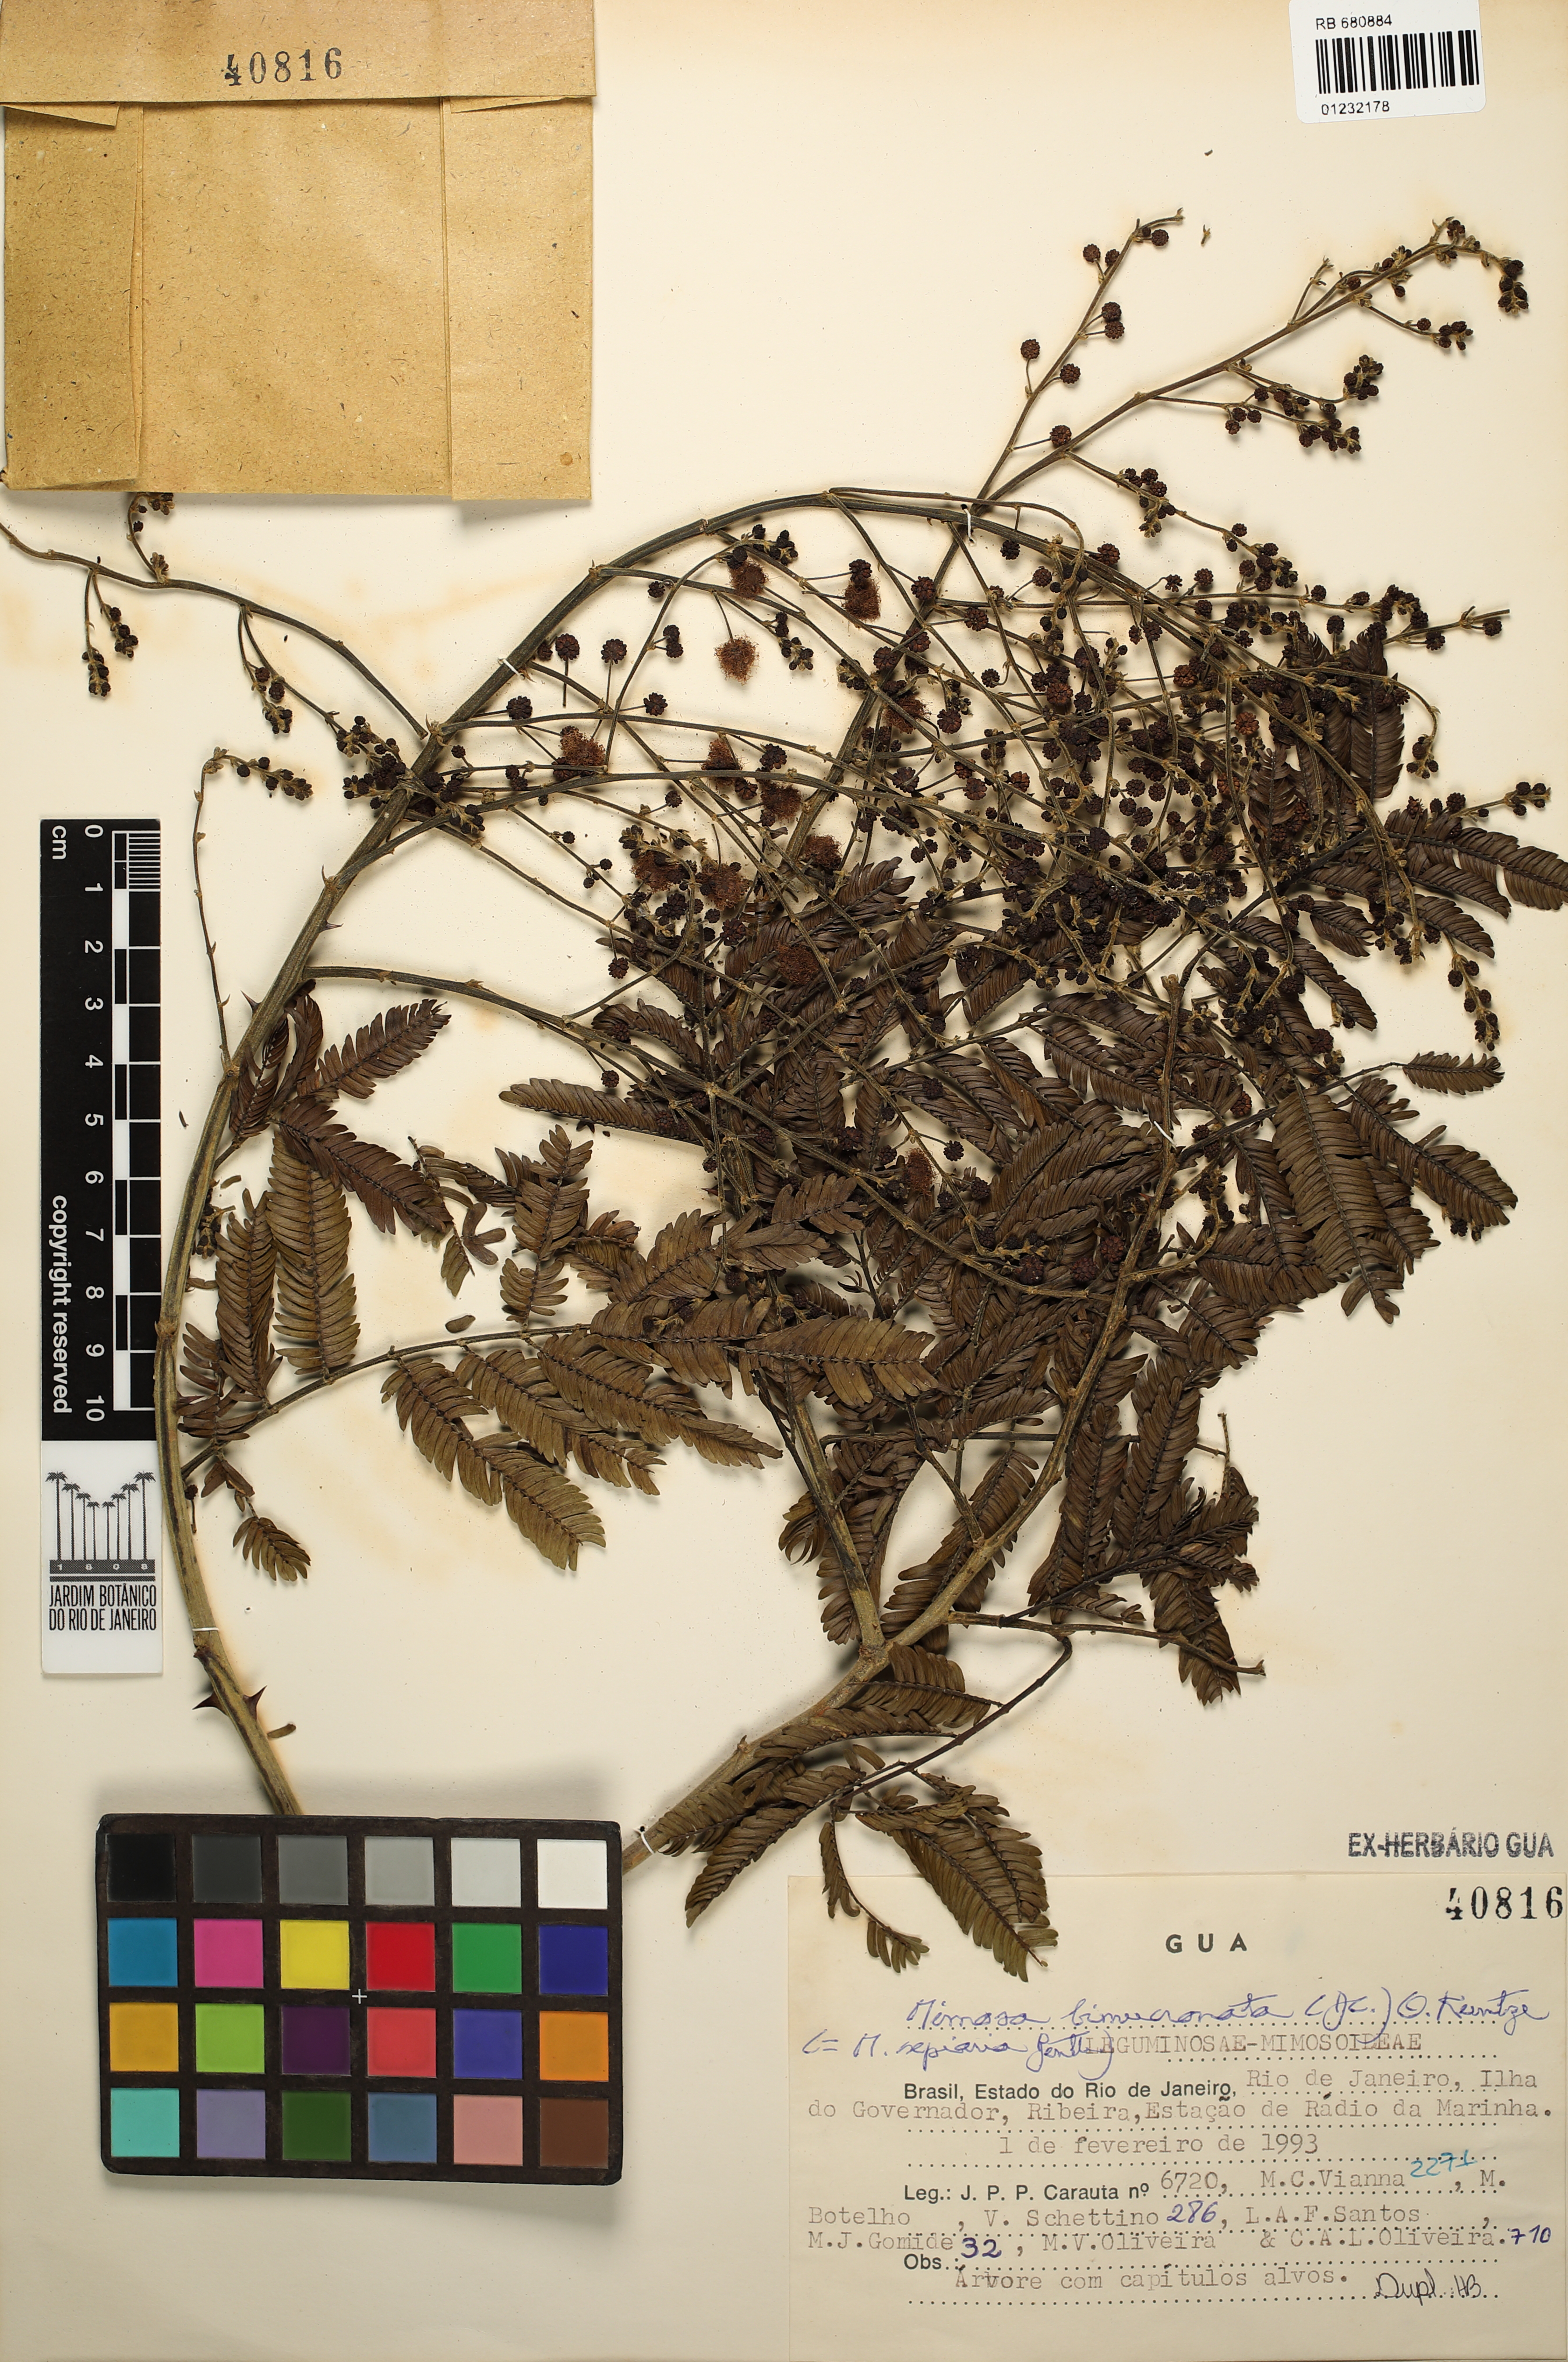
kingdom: Plantae
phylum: Tracheophyta
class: Magnoliopsida
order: Fabales
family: Fabaceae
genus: Mimosa
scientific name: Mimosa bimucronata
